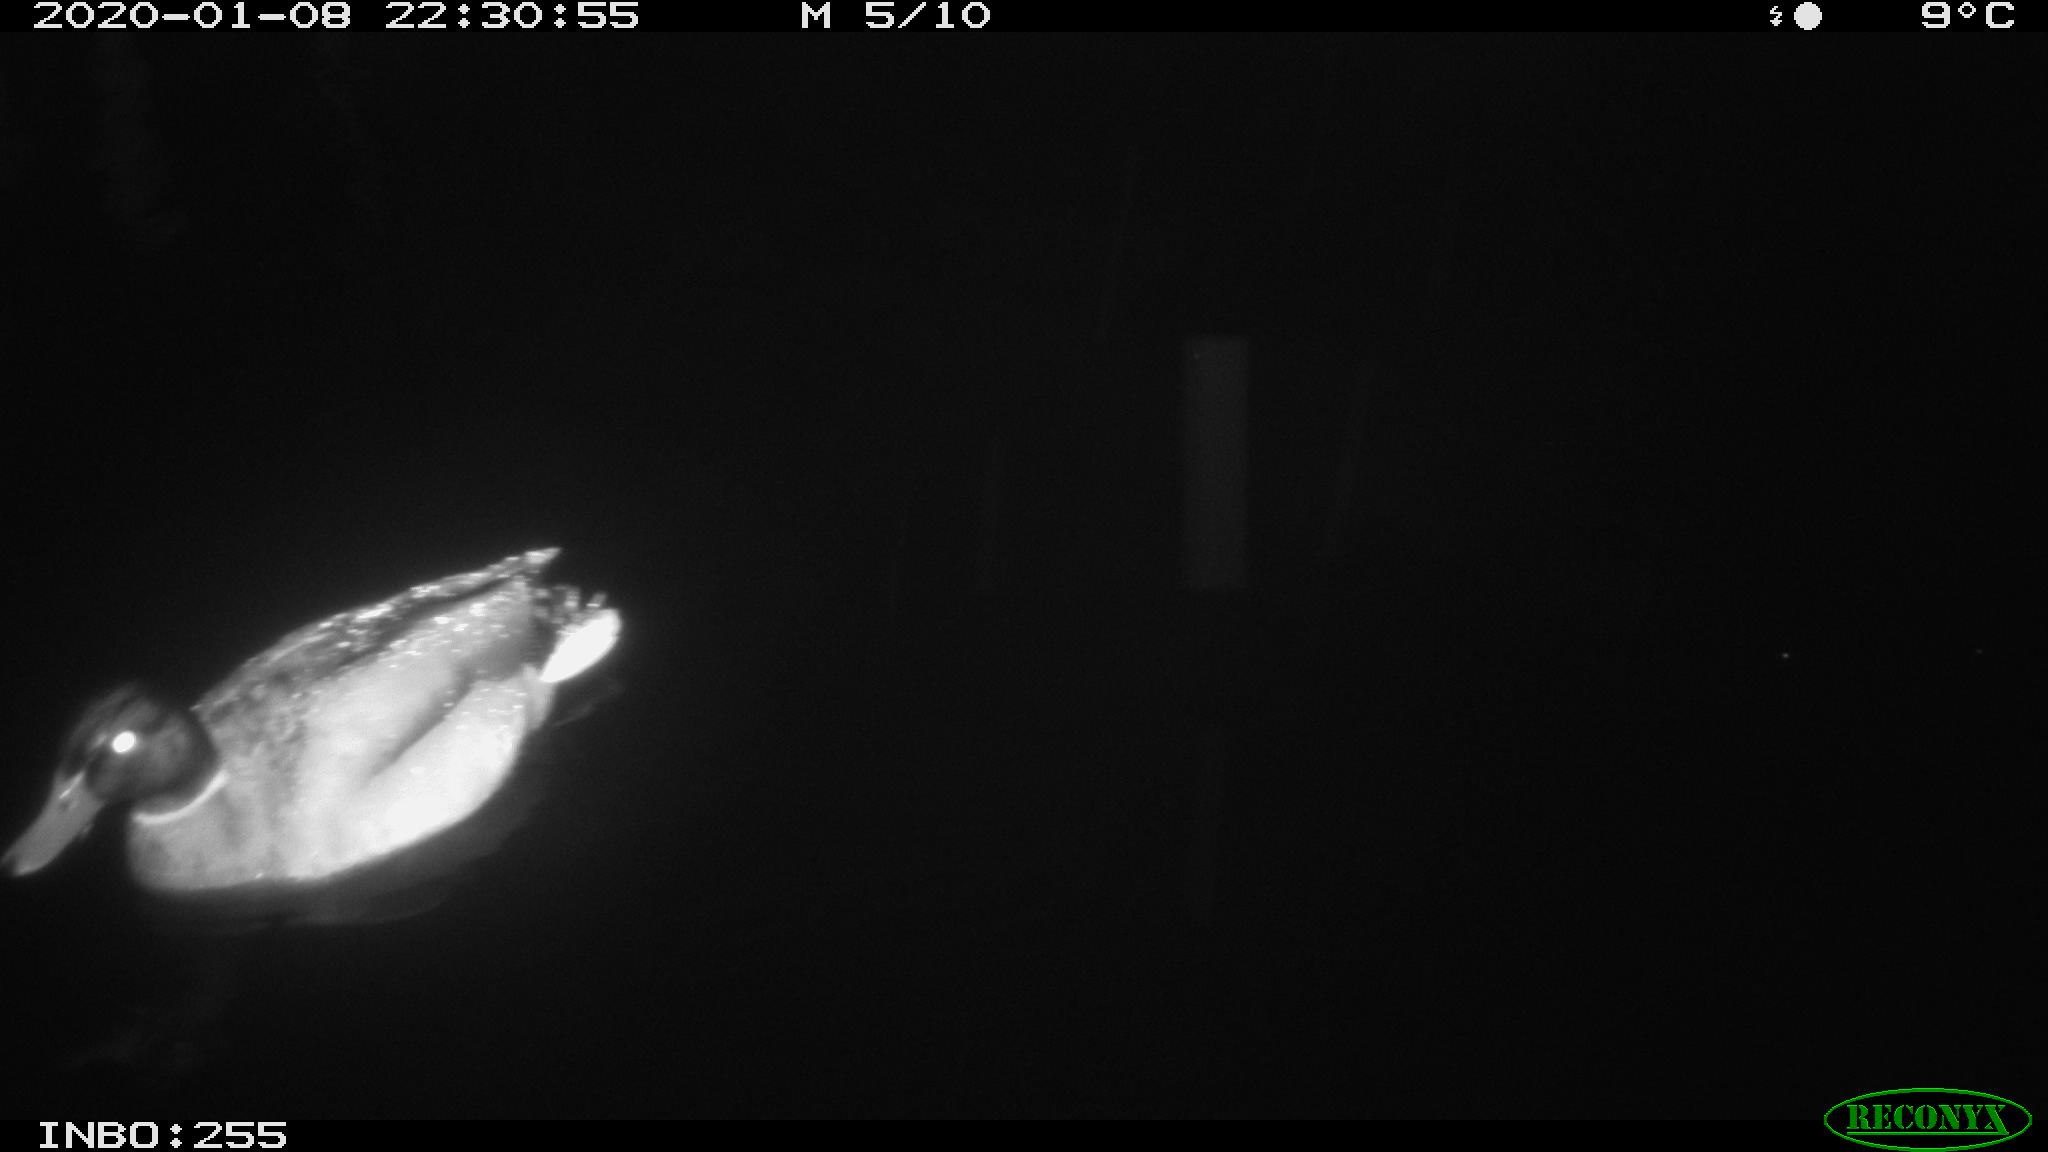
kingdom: Animalia
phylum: Chordata
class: Aves
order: Anseriformes
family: Anatidae
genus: Anas
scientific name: Anas platyrhynchos
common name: Mallard
